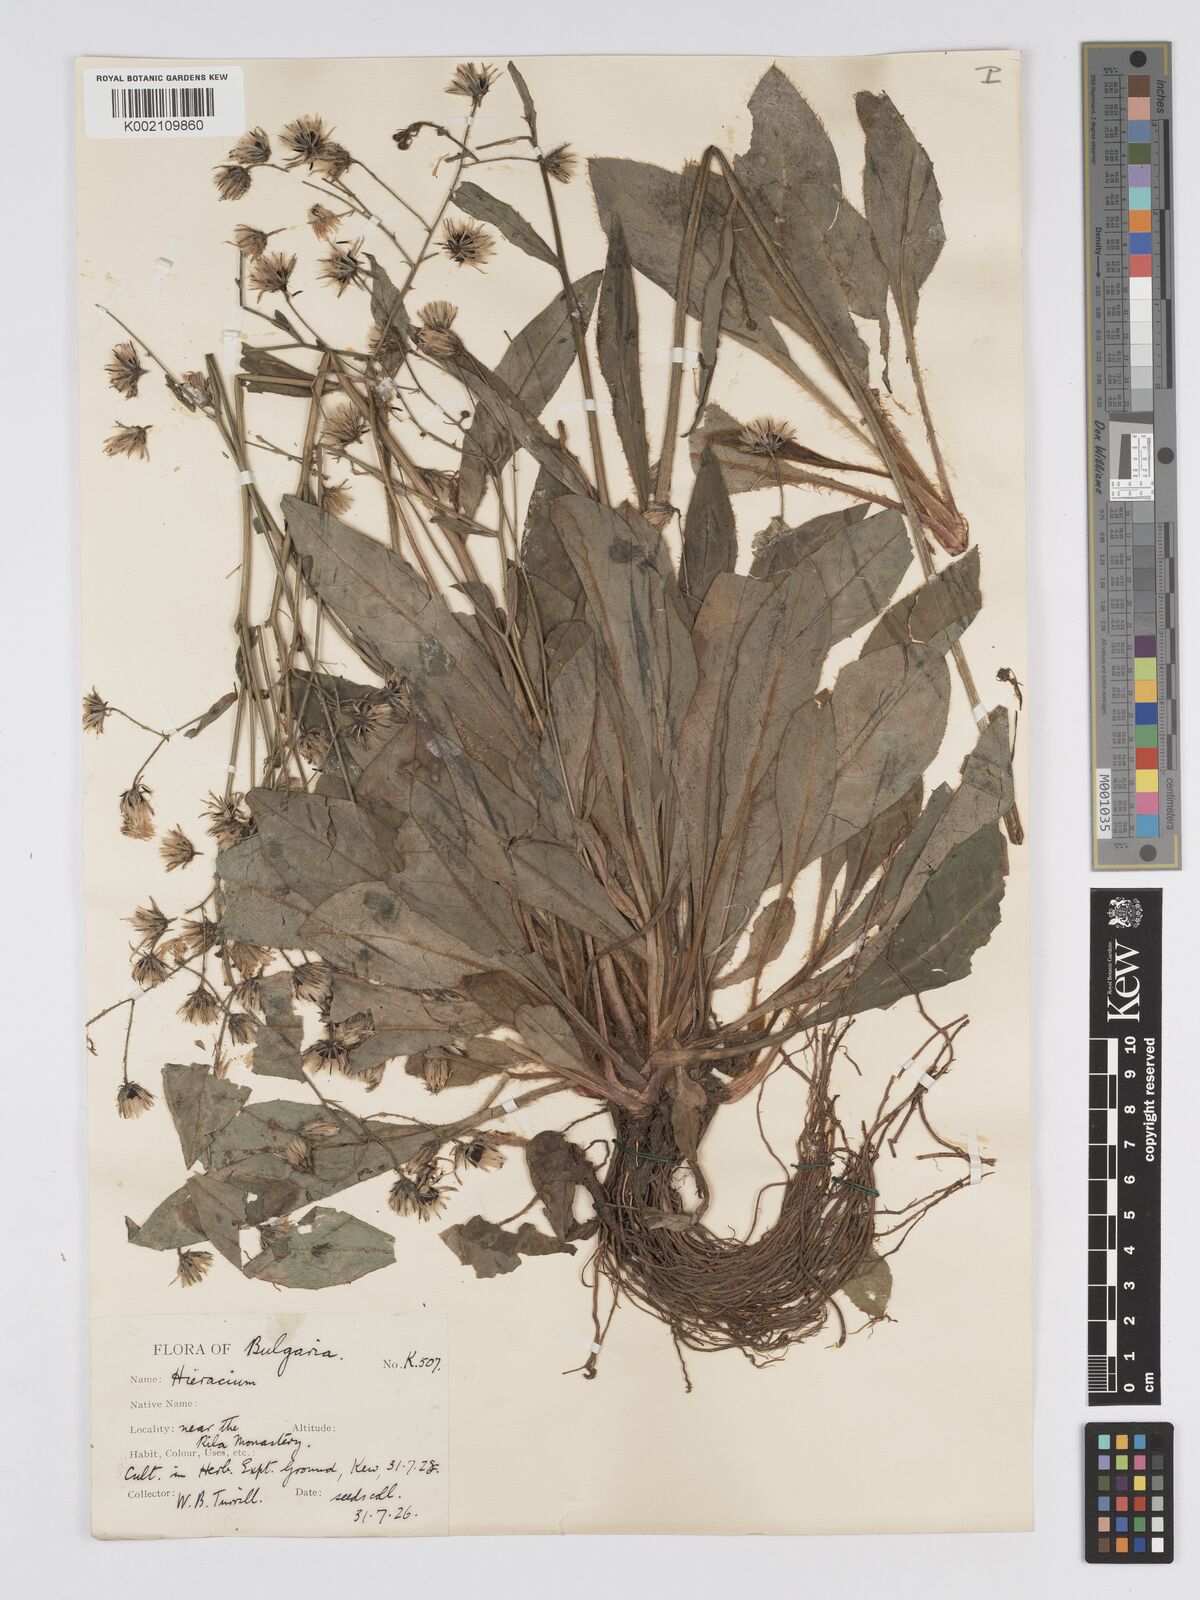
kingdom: Plantae
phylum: Tracheophyta
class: Magnoliopsida
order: Asterales
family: Asteraceae
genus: Hieracium
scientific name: Hieracium djimilense
